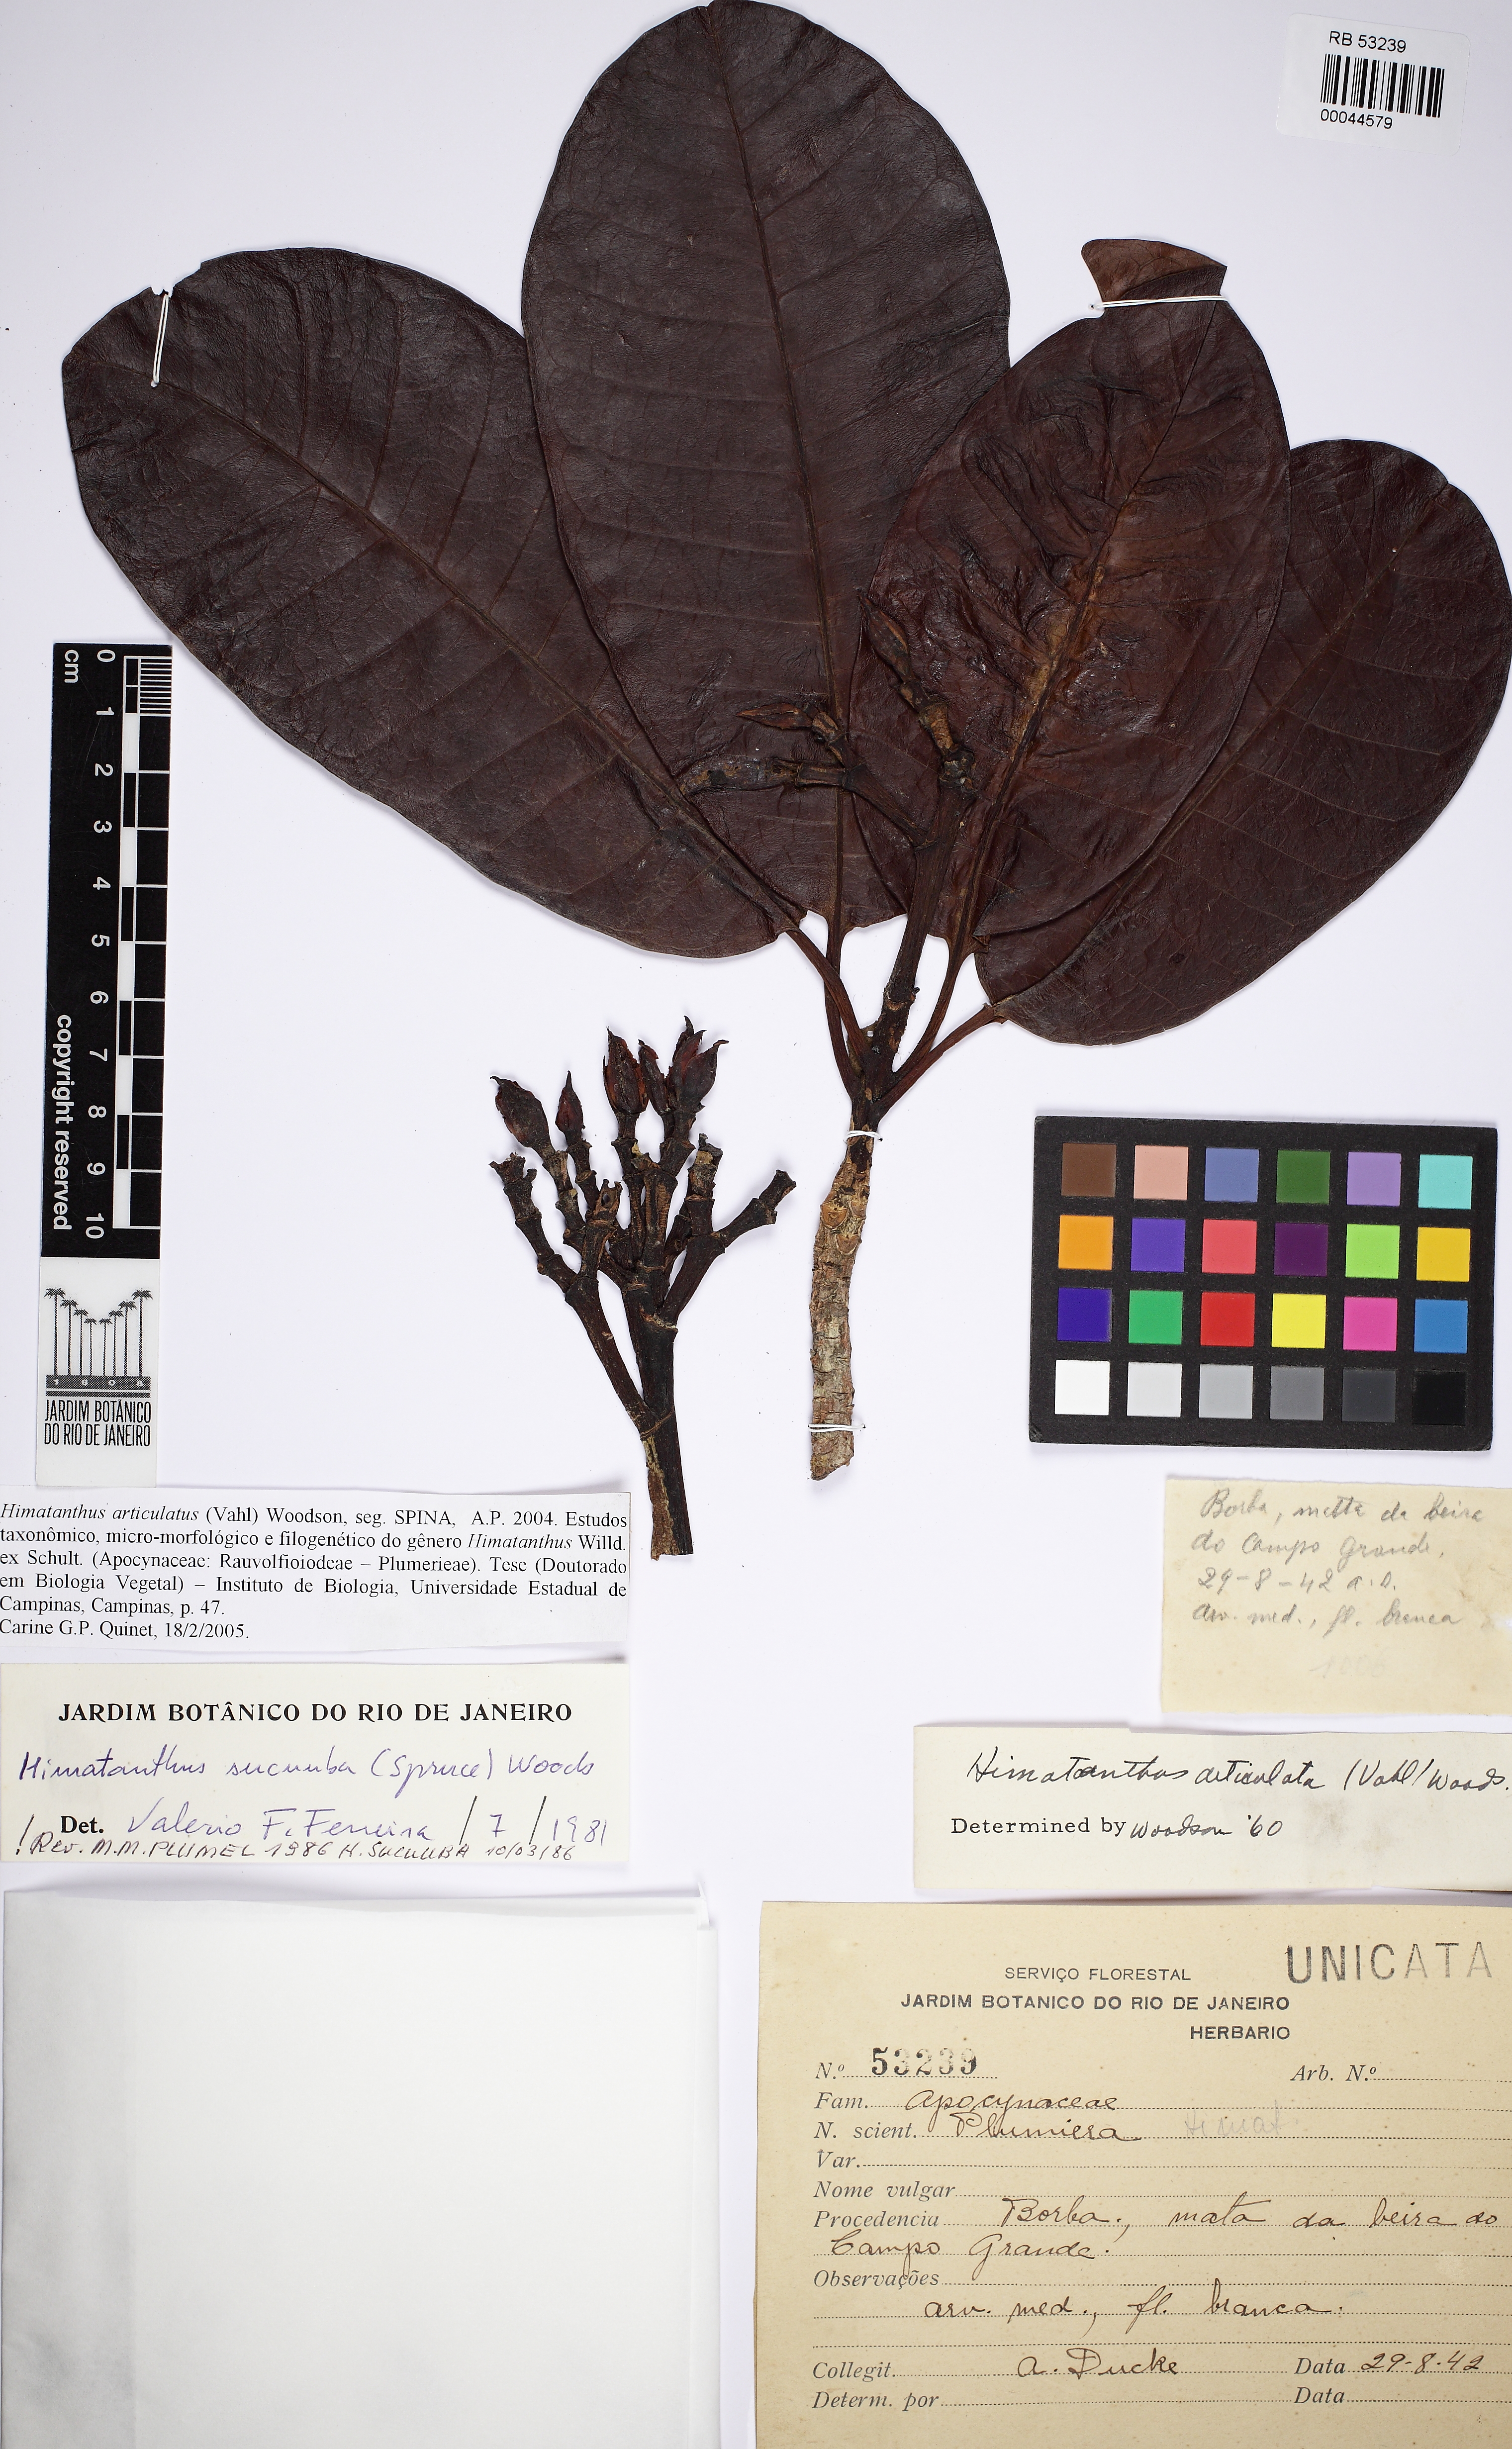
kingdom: Plantae
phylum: Tracheophyta
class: Magnoliopsida
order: Gentianales
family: Apocynaceae
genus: Himatanthus
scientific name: Himatanthus articulatus
